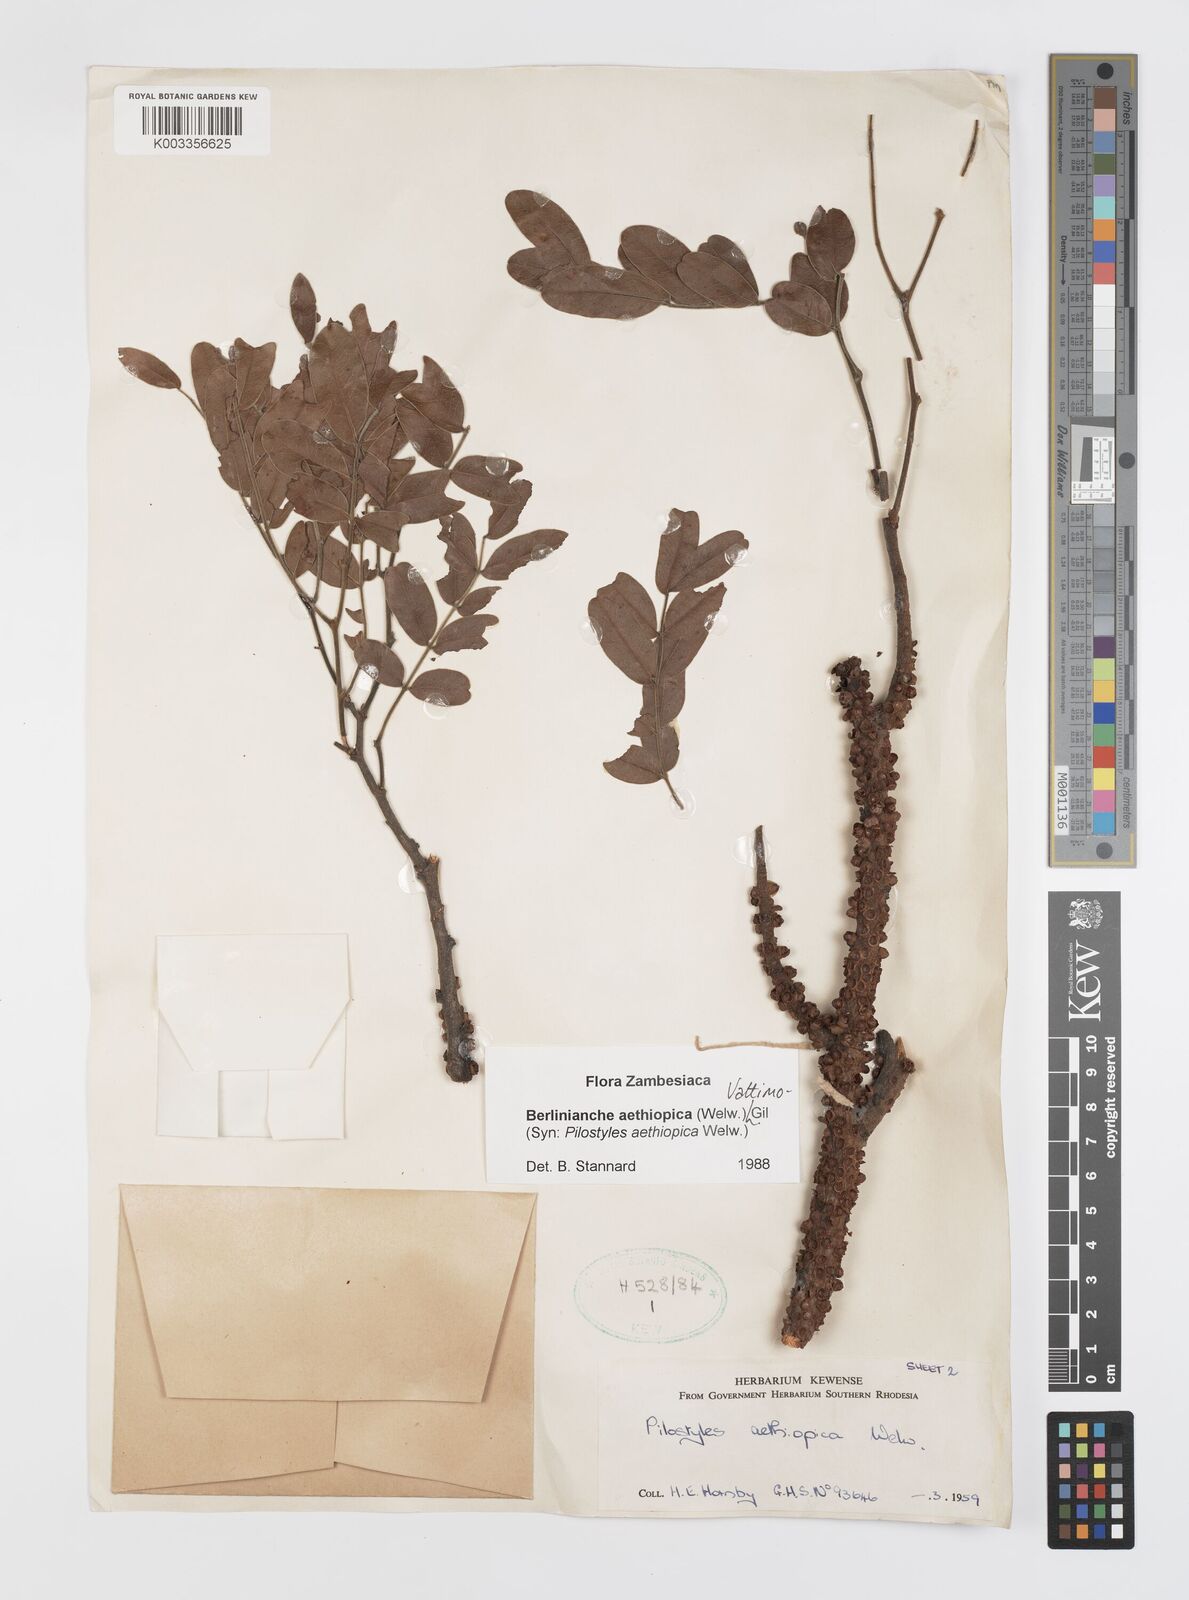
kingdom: Plantae
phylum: Tracheophyta
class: Magnoliopsida
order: Cucurbitales
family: Apodanthaceae
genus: Pilostyles
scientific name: Pilostyles aethiopica
